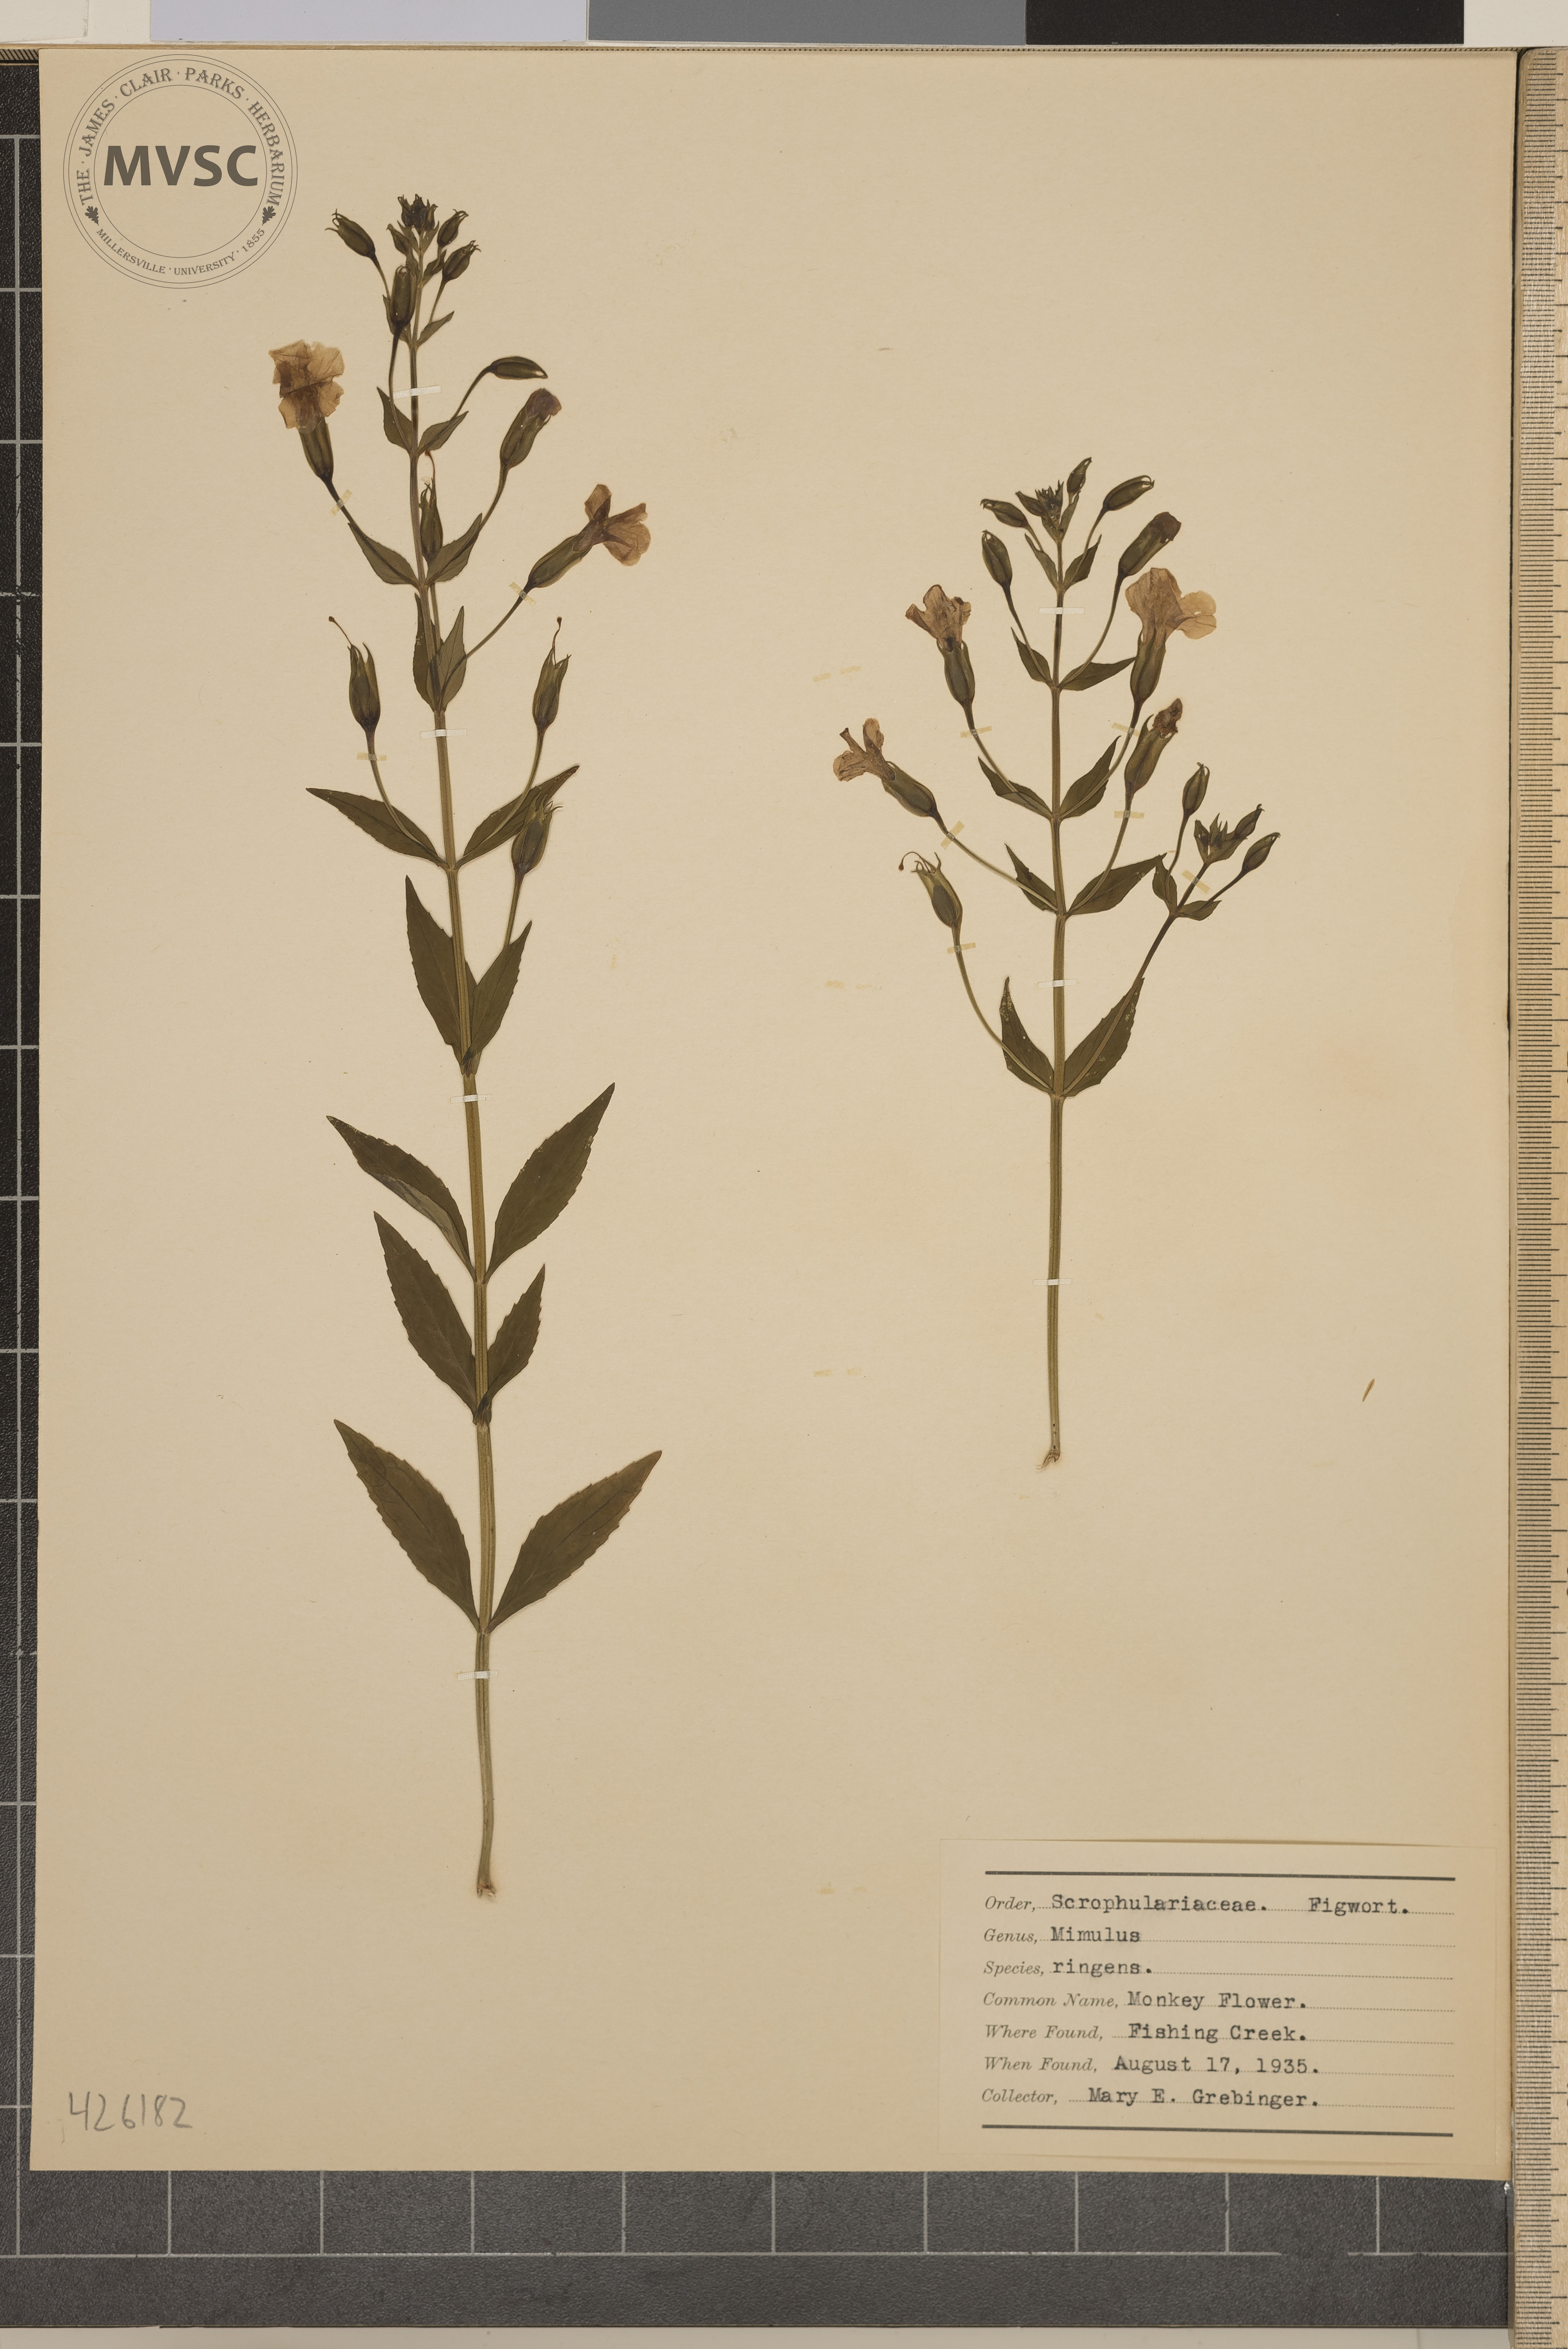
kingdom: Plantae
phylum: Tracheophyta
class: Magnoliopsida
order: Lamiales
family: Phrymaceae
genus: Mimulus
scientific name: Mimulus ringens
